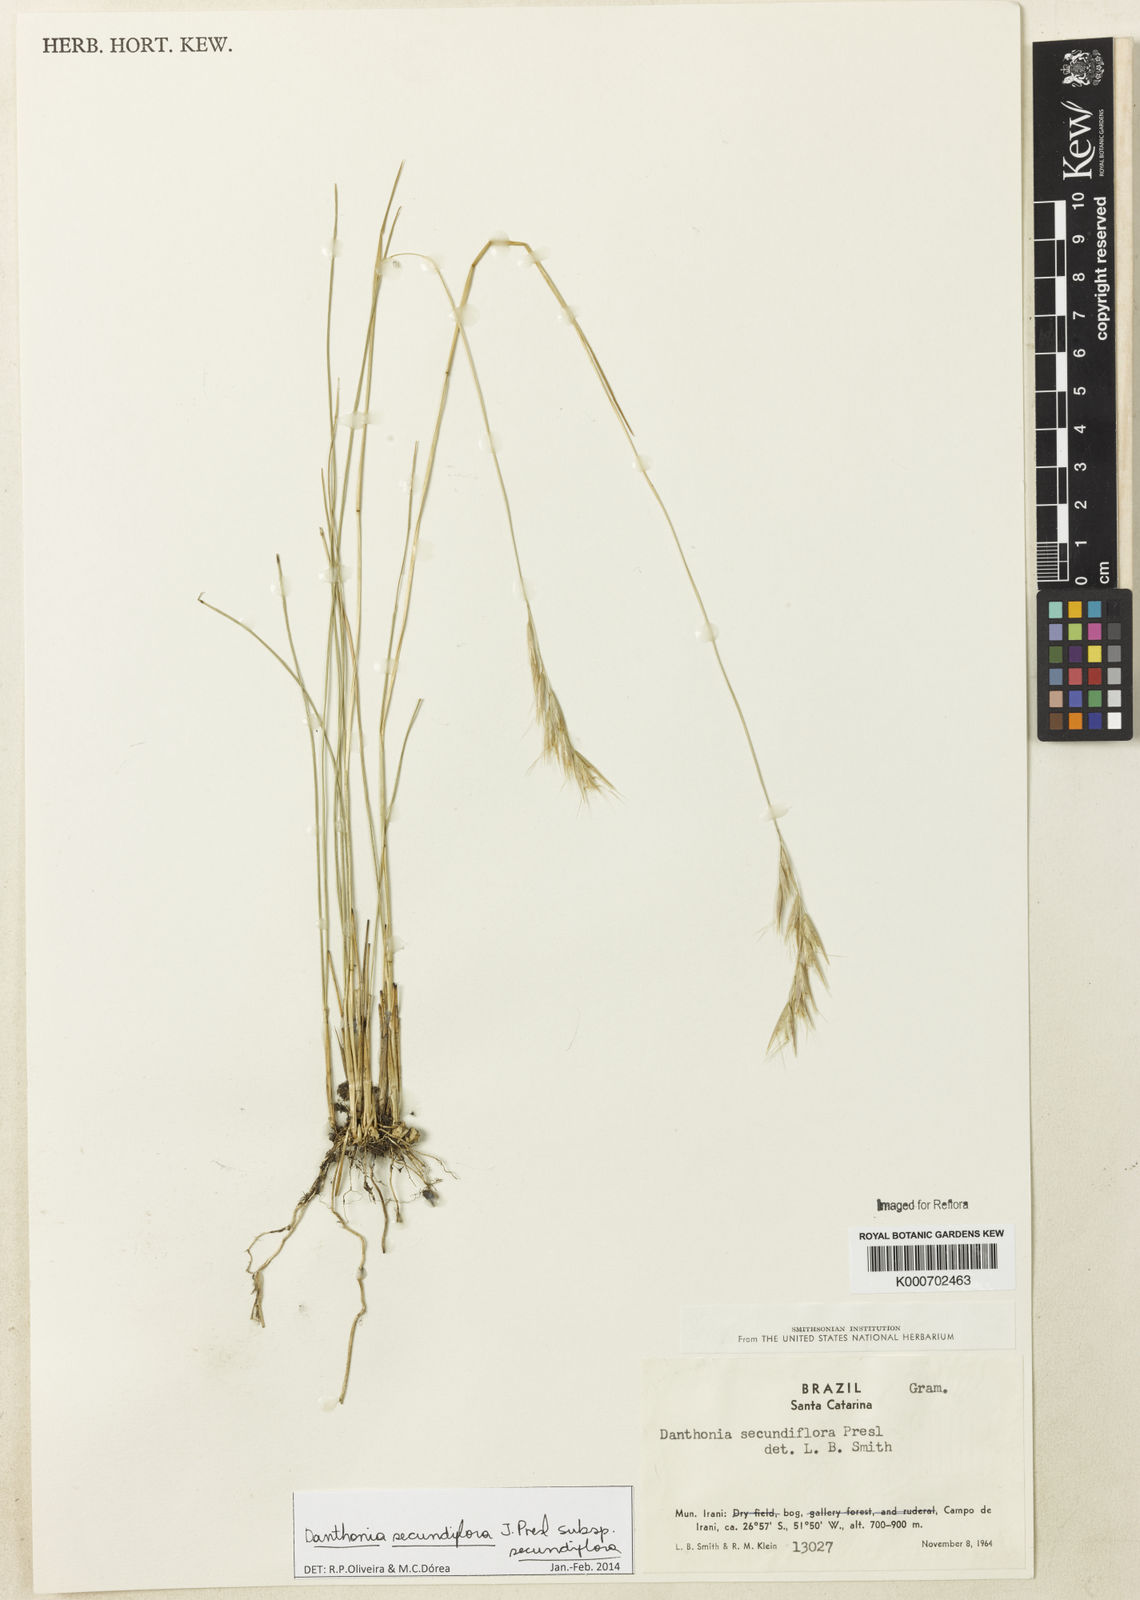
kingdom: Plantae
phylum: Tracheophyta
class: Liliopsida
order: Poales
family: Poaceae
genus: Danthonia
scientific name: Danthonia secundiflora
